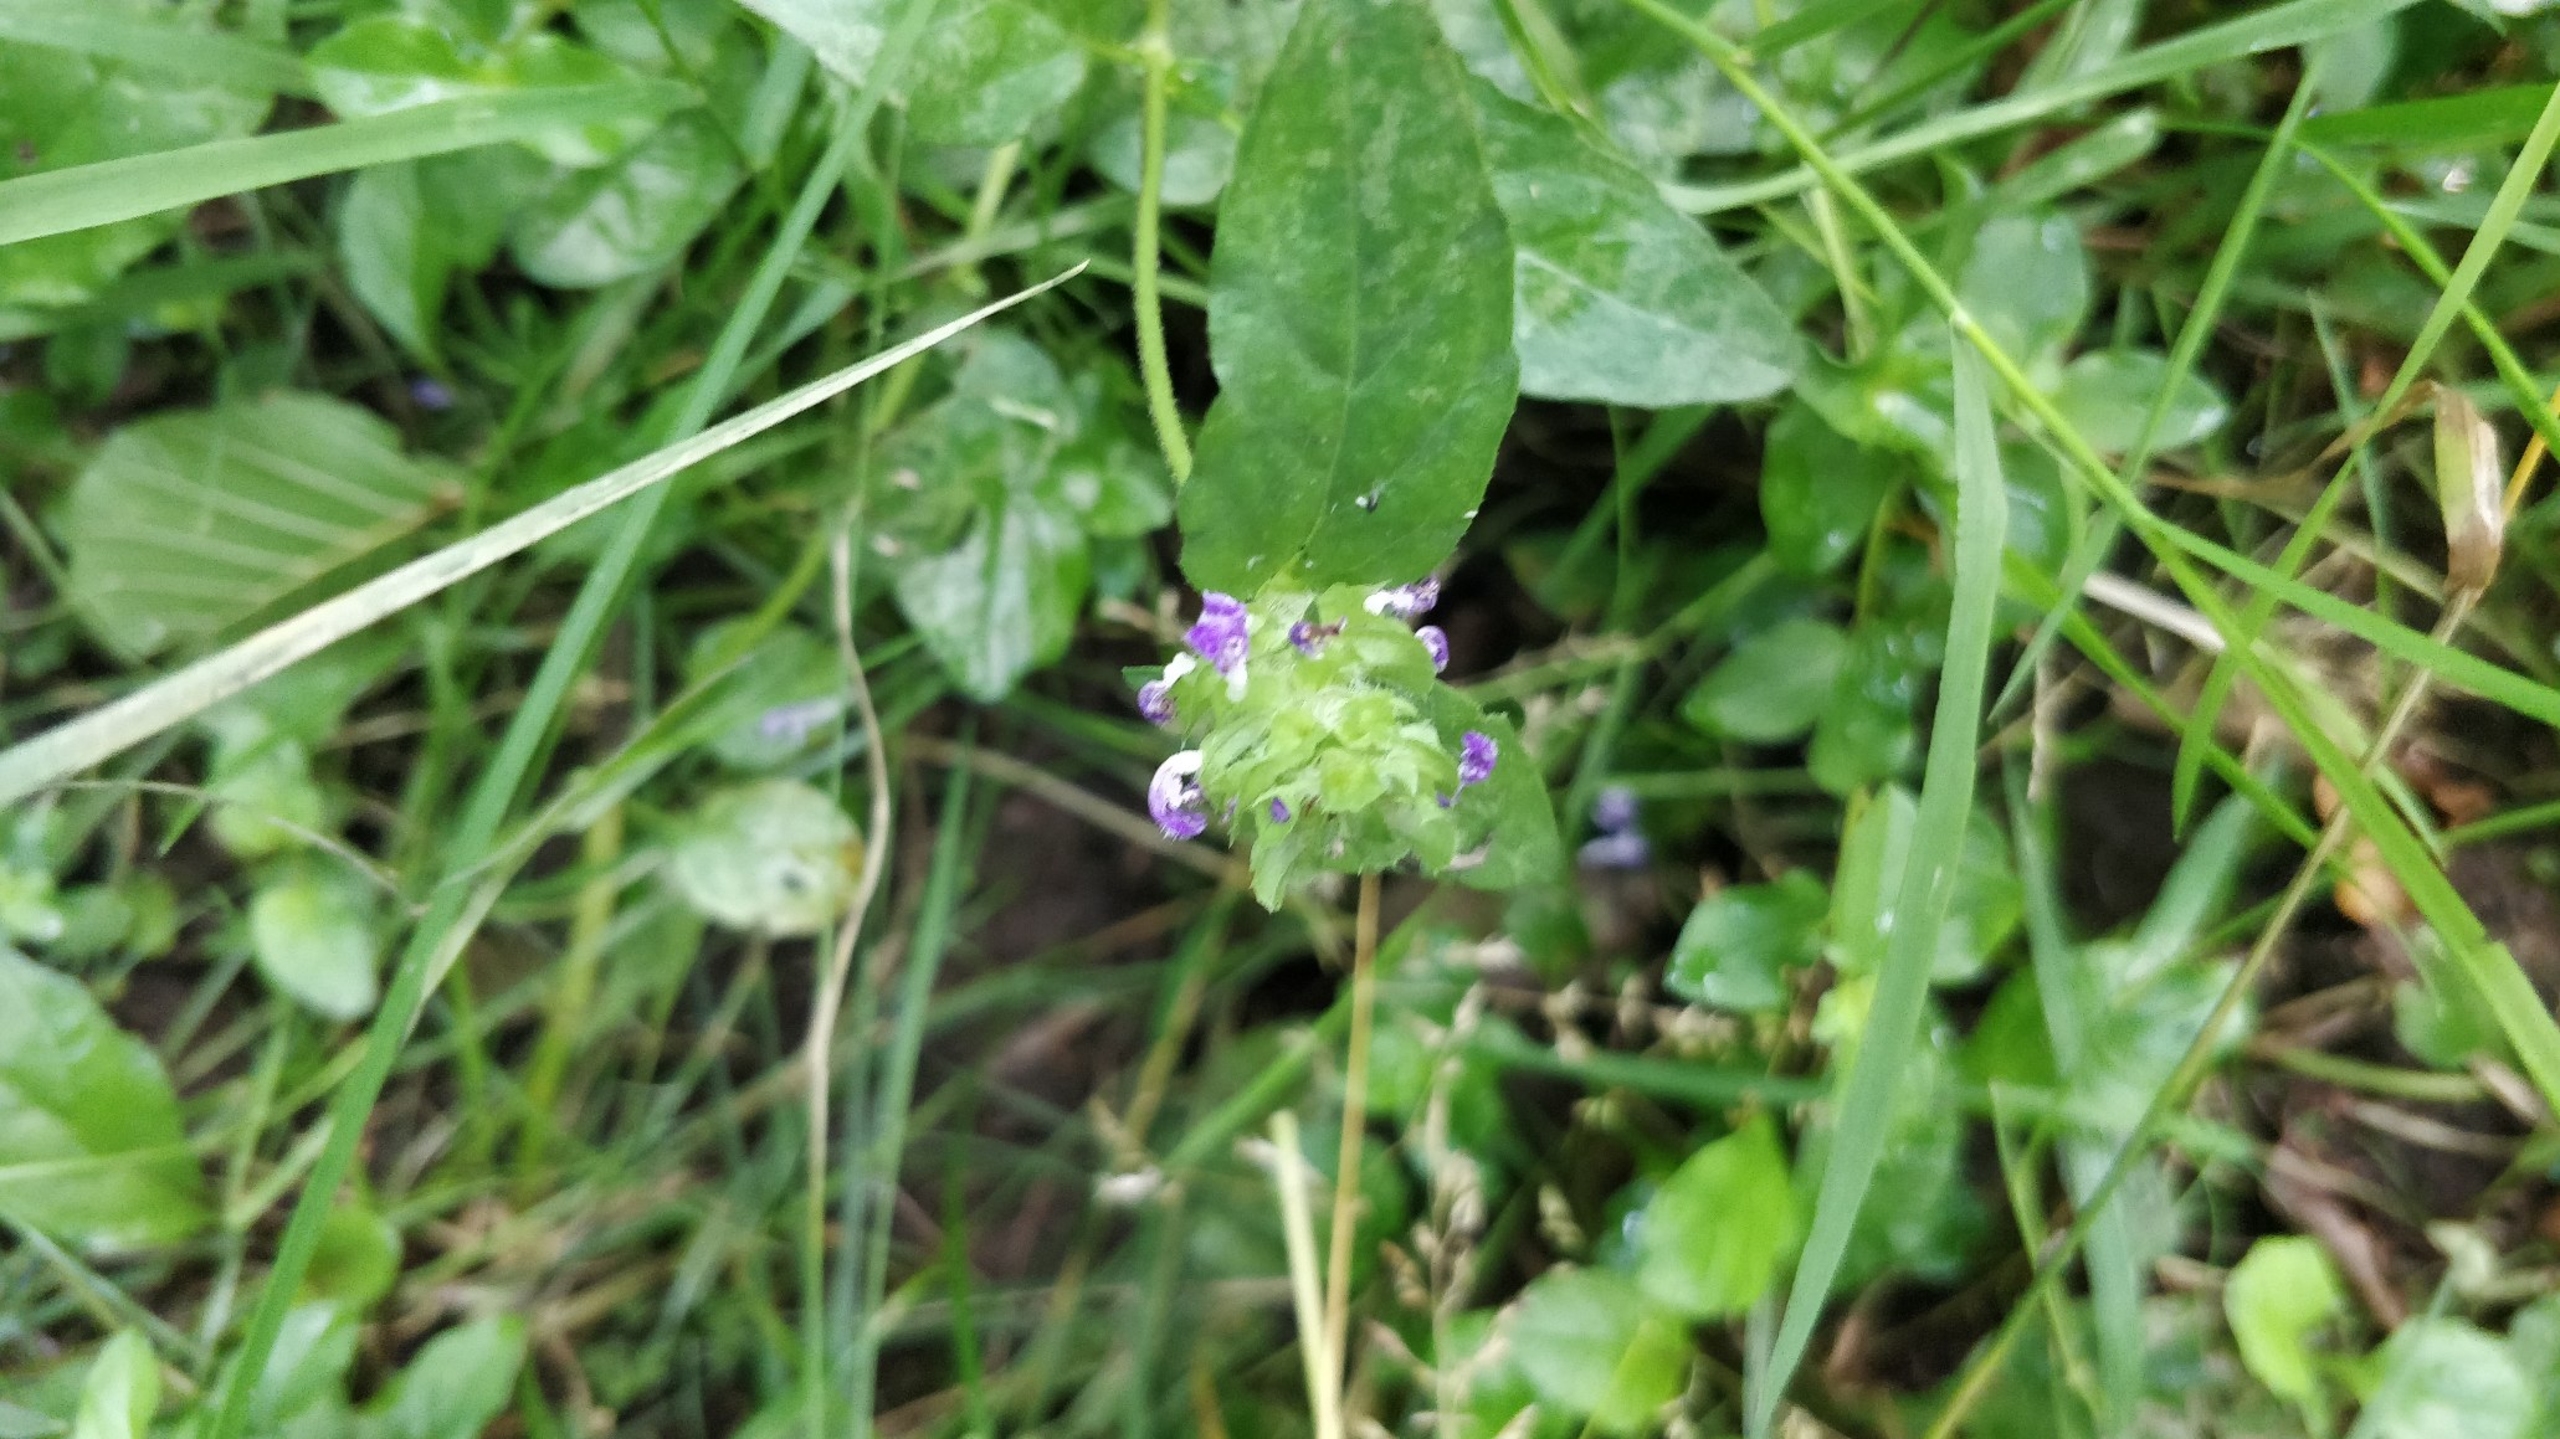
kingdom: Plantae
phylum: Tracheophyta
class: Magnoliopsida
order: Lamiales
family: Lamiaceae
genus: Prunella
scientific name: Prunella vulgaris
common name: Almindelig brunelle
